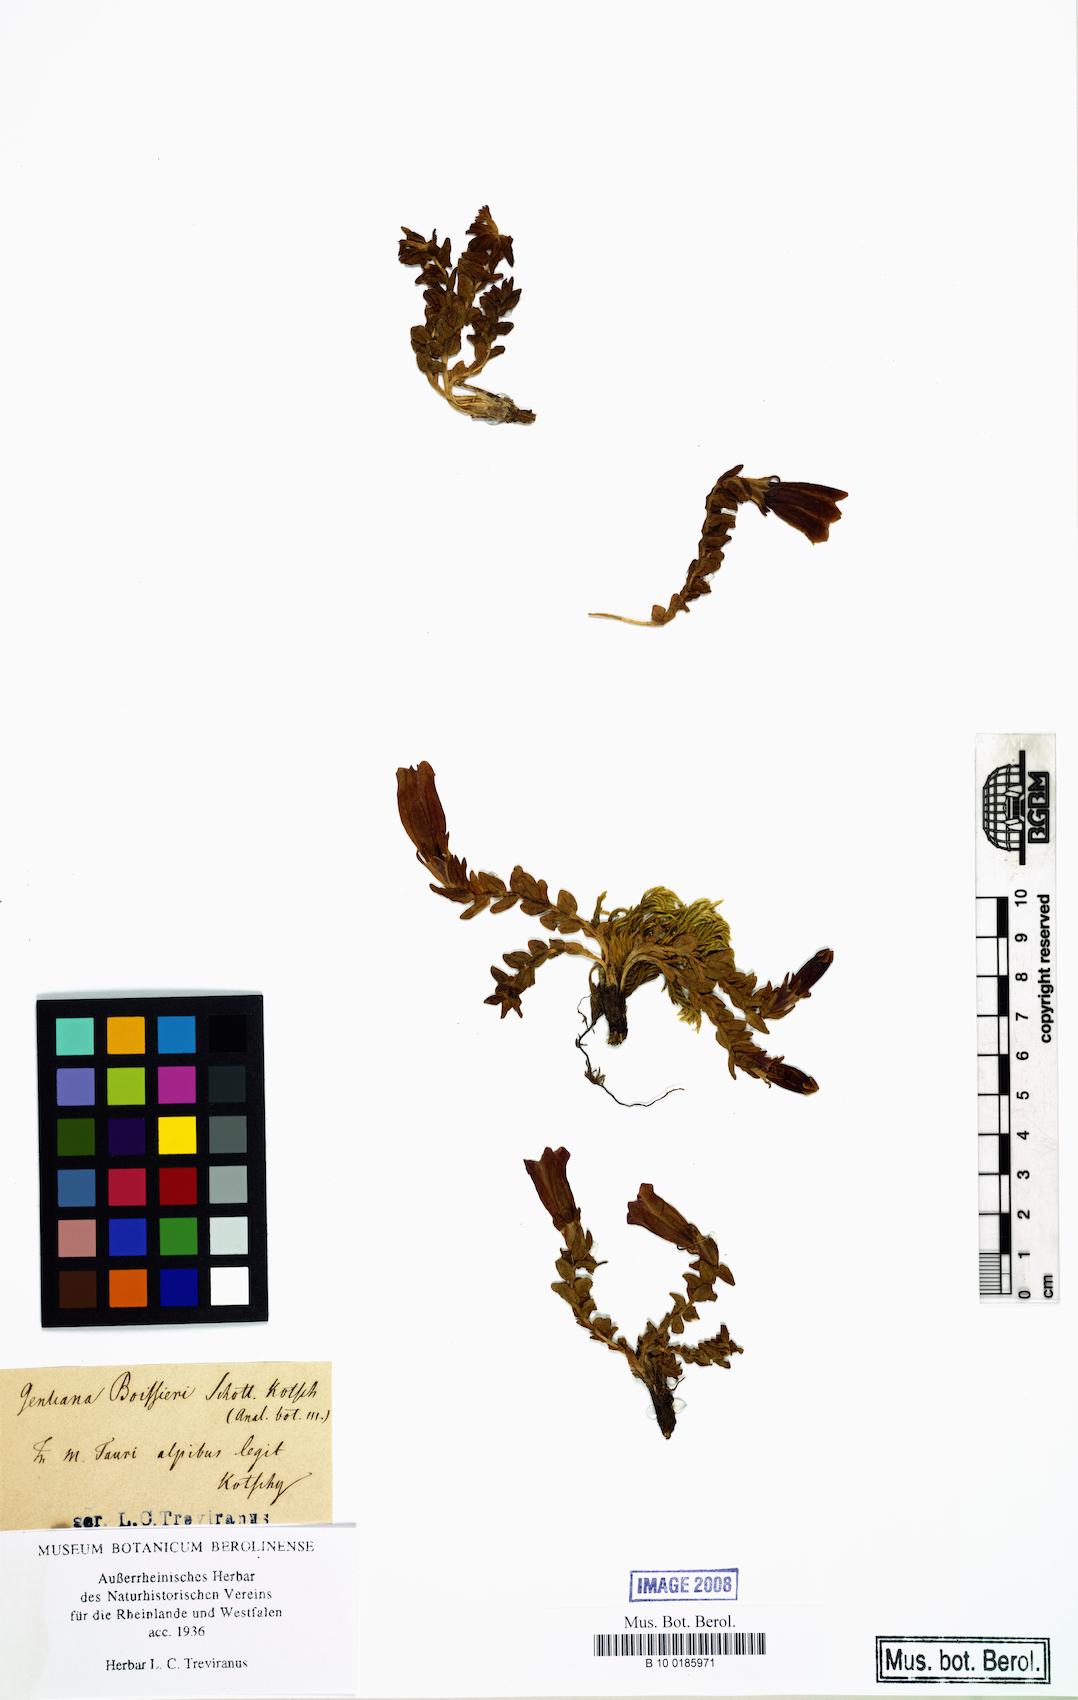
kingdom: Plantae
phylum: Tracheophyta
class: Magnoliopsida
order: Gentianales
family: Gentianaceae
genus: Gentiana
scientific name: Gentiana boissieri
